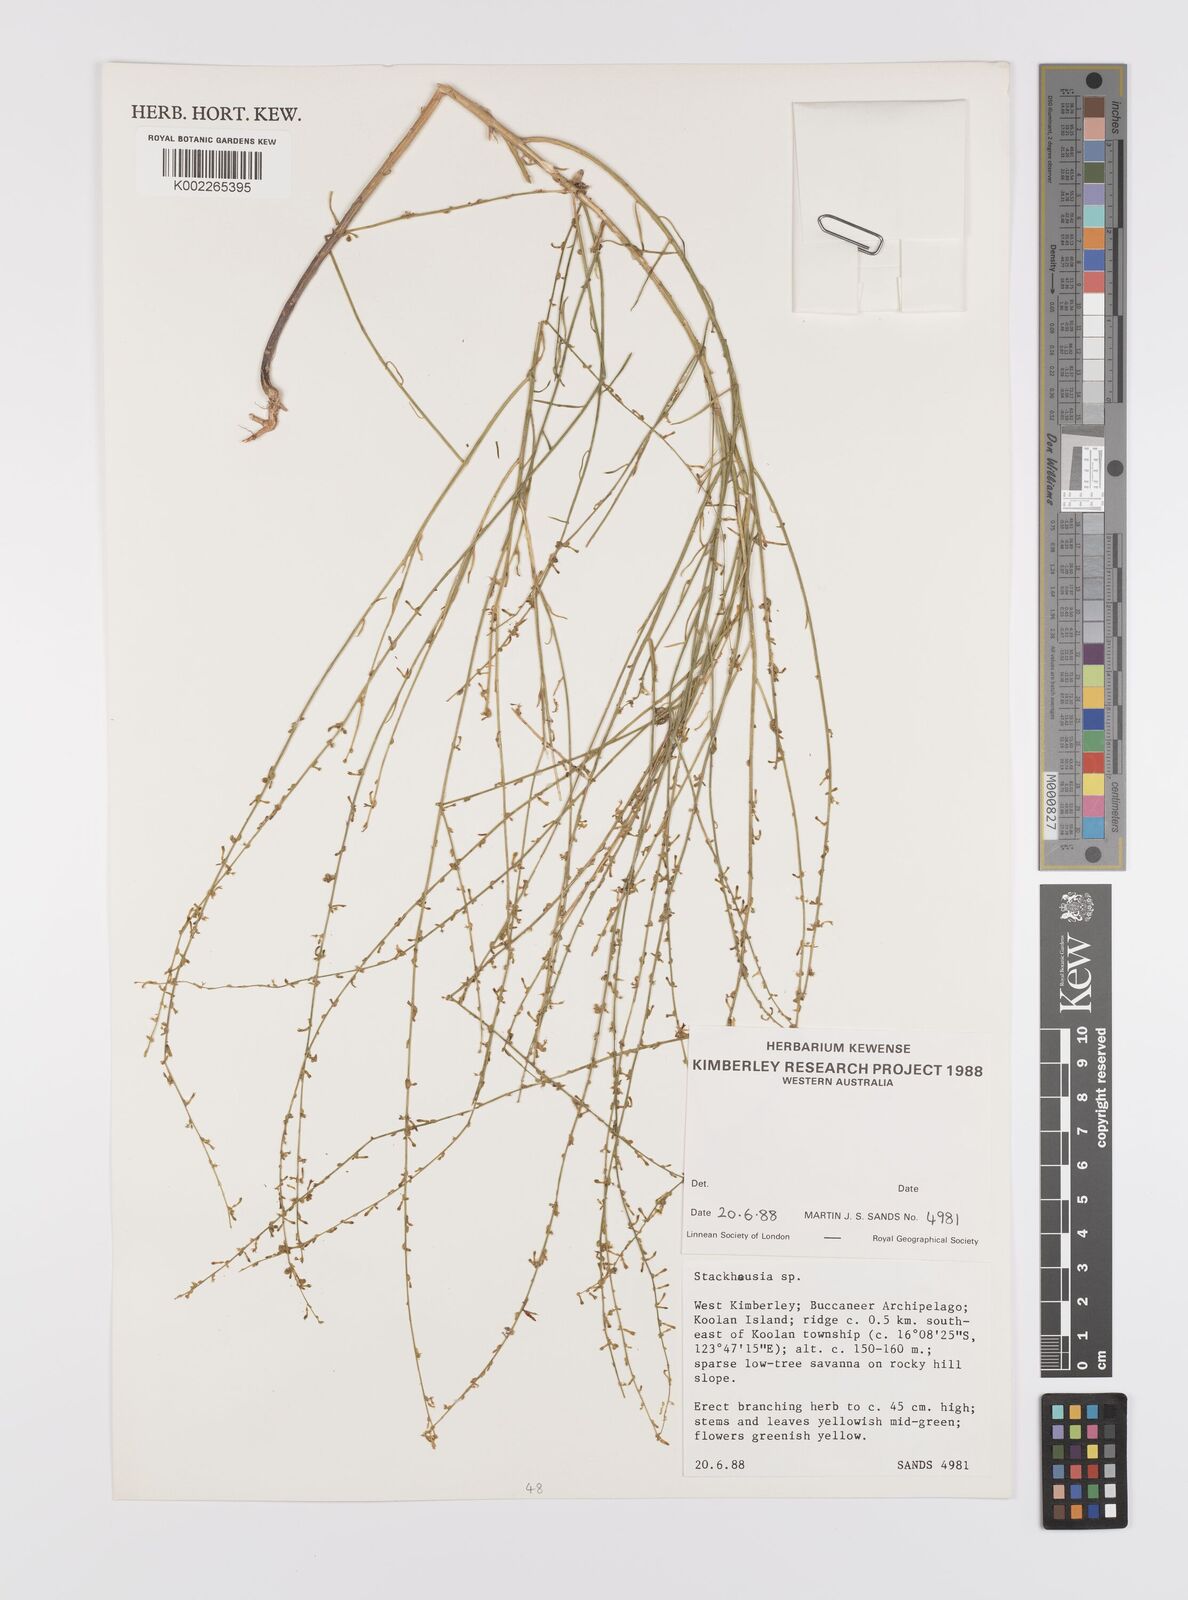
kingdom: Plantae
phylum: Tracheophyta
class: Magnoliopsida
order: Celastrales
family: Celastraceae
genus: Stackhousia
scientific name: Stackhousia
